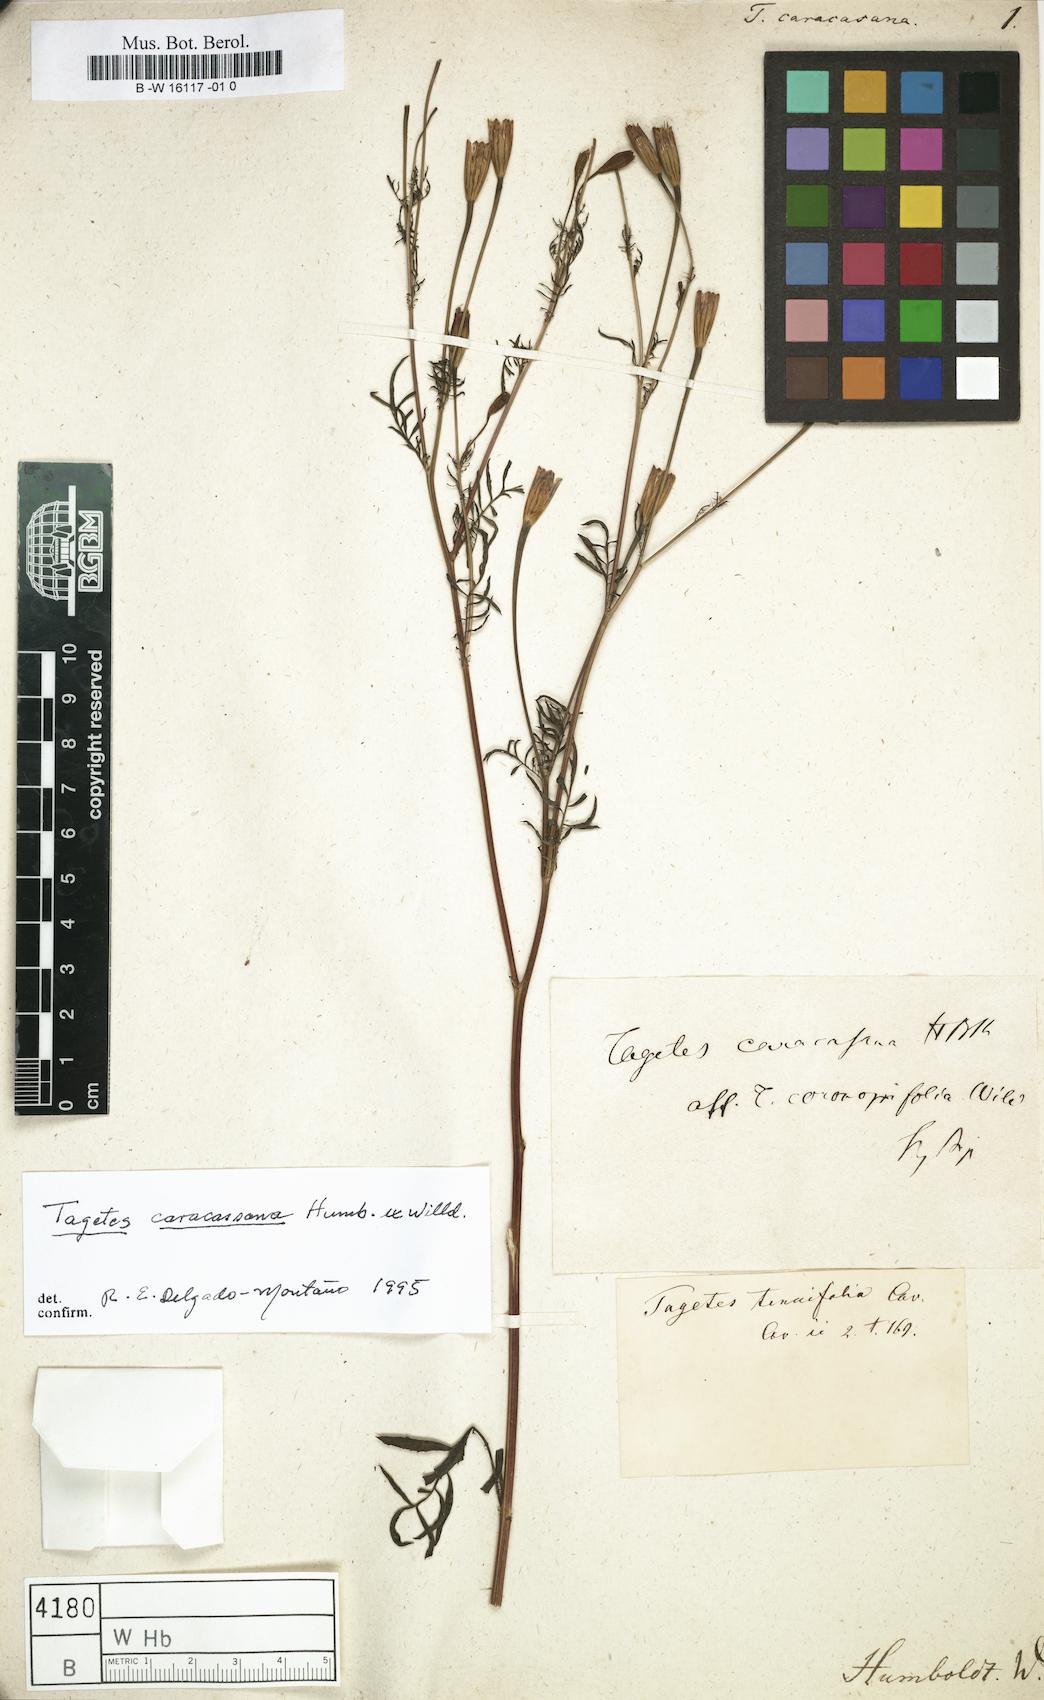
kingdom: Plantae
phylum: Tracheophyta
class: Magnoliopsida
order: Asterales
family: Asteraceae
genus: Tagetes
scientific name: Tagetes verticillata
